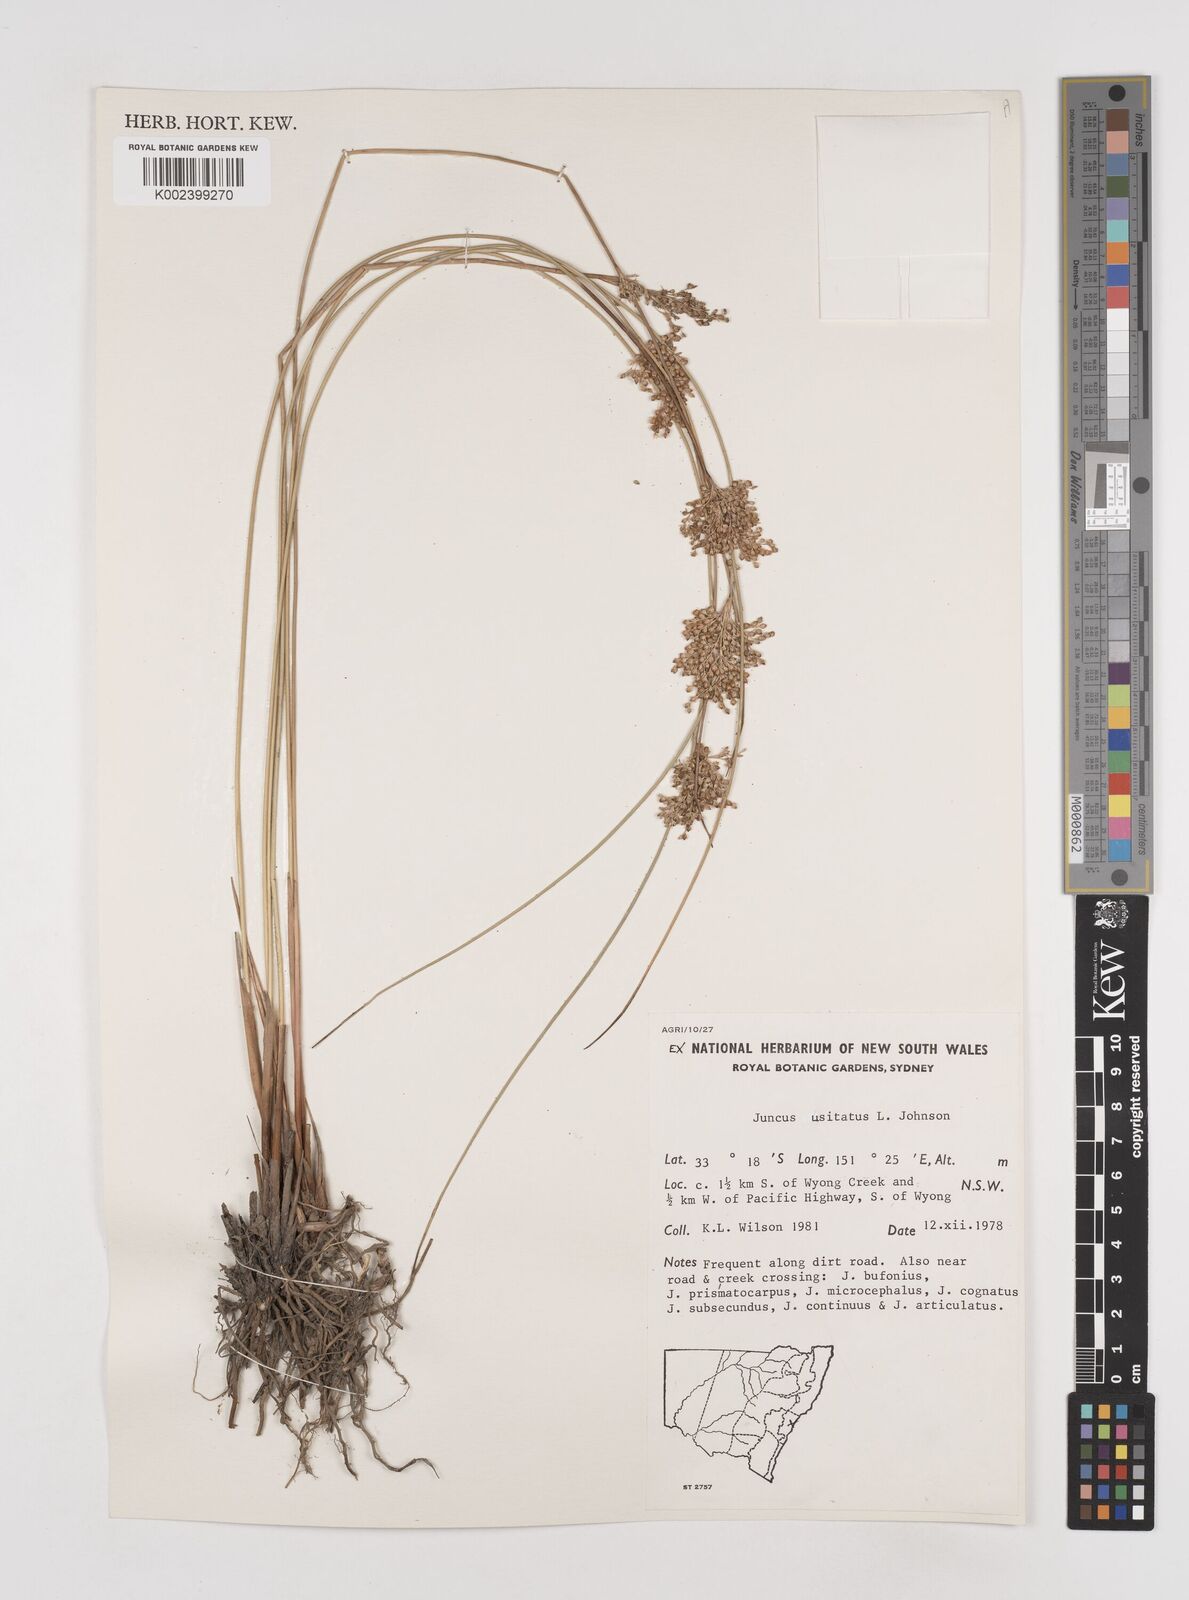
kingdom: Plantae
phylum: Tracheophyta
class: Liliopsida
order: Poales
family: Juncaceae
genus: Juncus
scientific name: Juncus usitatus
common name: Rush
